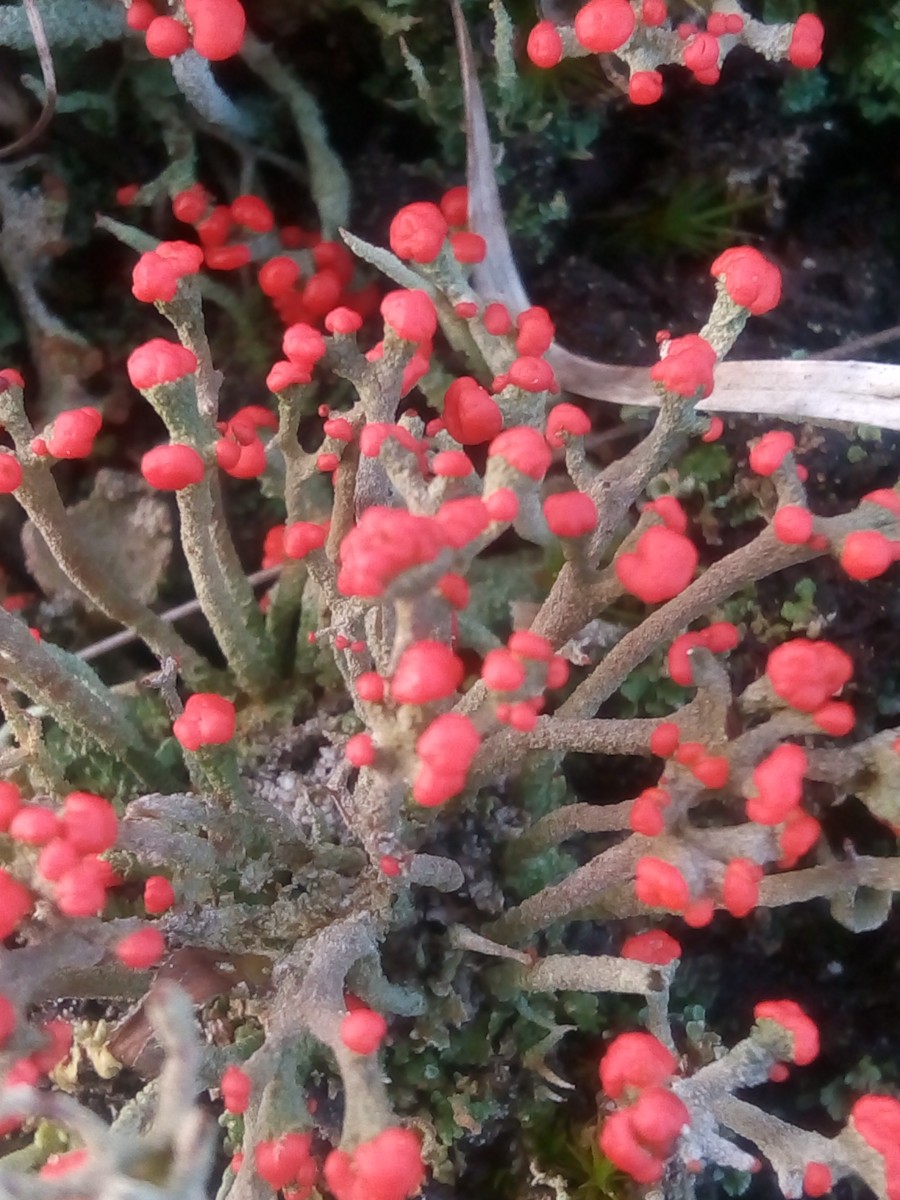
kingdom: Fungi
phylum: Ascomycota
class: Lecanoromycetes
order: Lecanorales
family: Cladoniaceae
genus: Cladonia
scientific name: Cladonia floerkeana
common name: lakrød bægerlav
